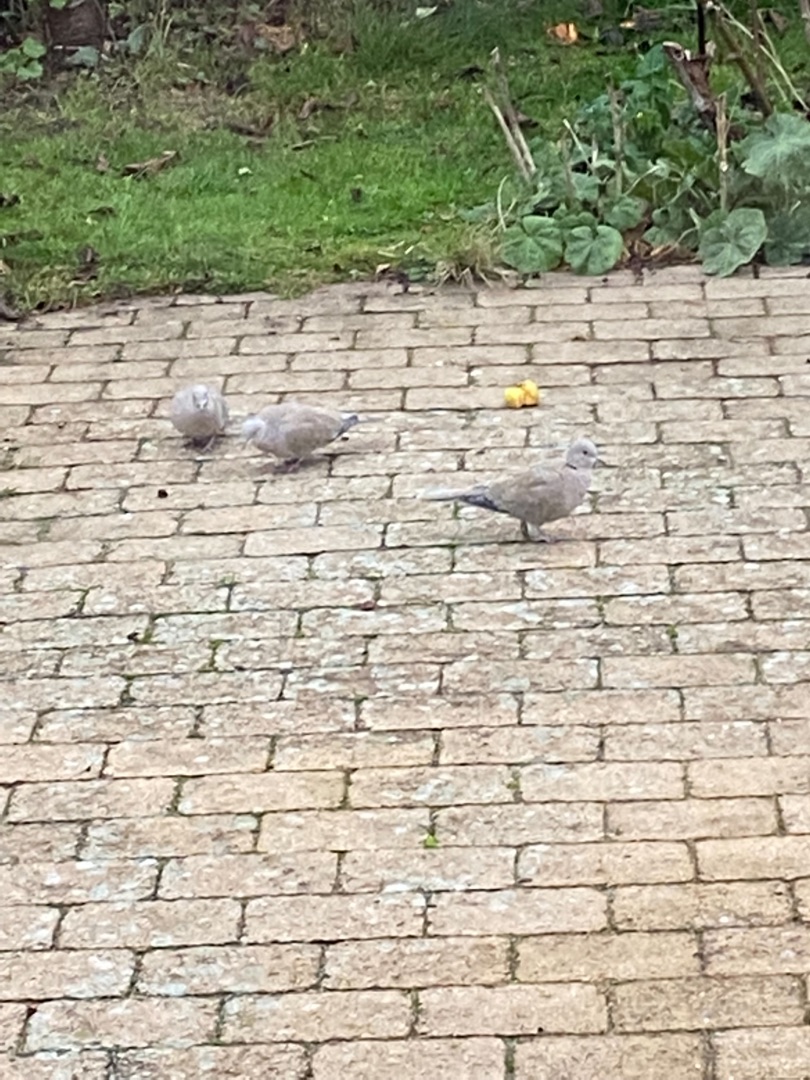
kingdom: Animalia
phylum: Chordata
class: Aves
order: Columbiformes
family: Columbidae
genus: Streptopelia
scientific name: Streptopelia decaocto
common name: Tyrkerdue
